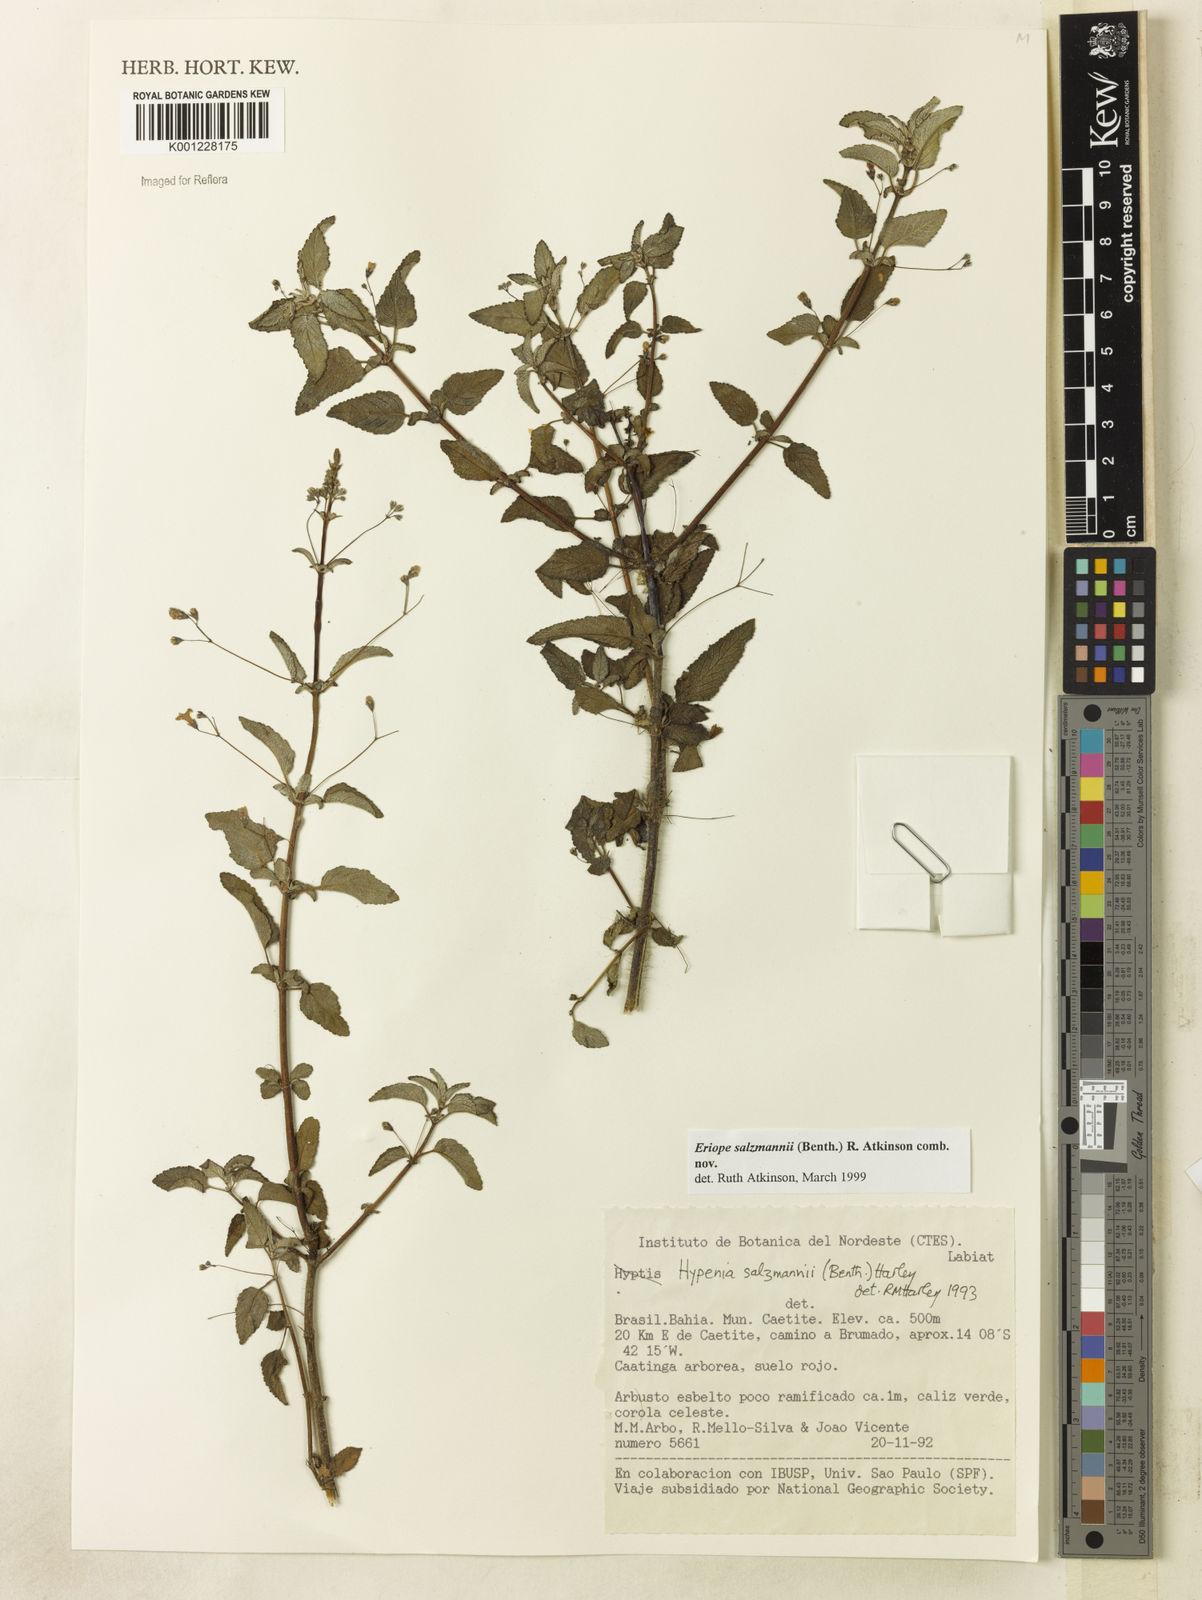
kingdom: Plantae
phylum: Tracheophyta
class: Magnoliopsida
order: Lamiales
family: Lamiaceae
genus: Hypenia
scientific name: Hypenia salzmannii
